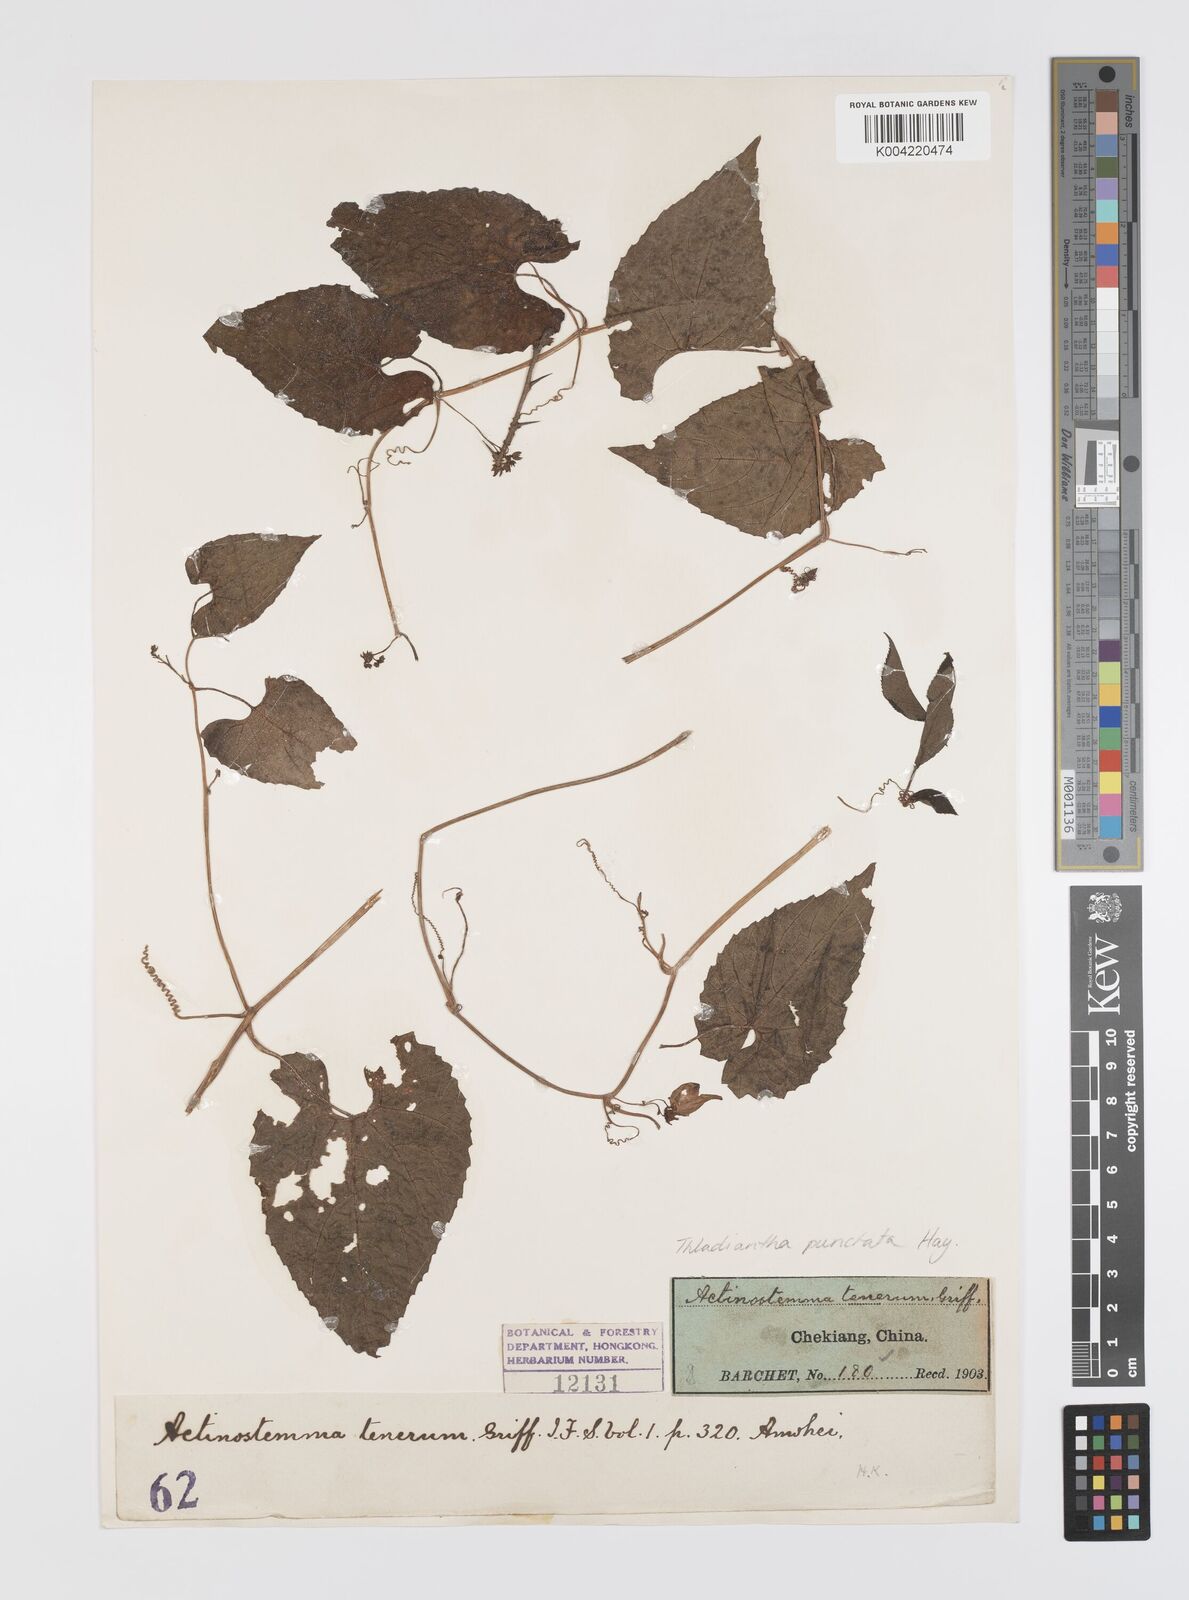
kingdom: Plantae
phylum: Tracheophyta
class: Magnoliopsida
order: Cucurbitales
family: Cucurbitaceae
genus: Thladiantha
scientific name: Thladiantha punctata
